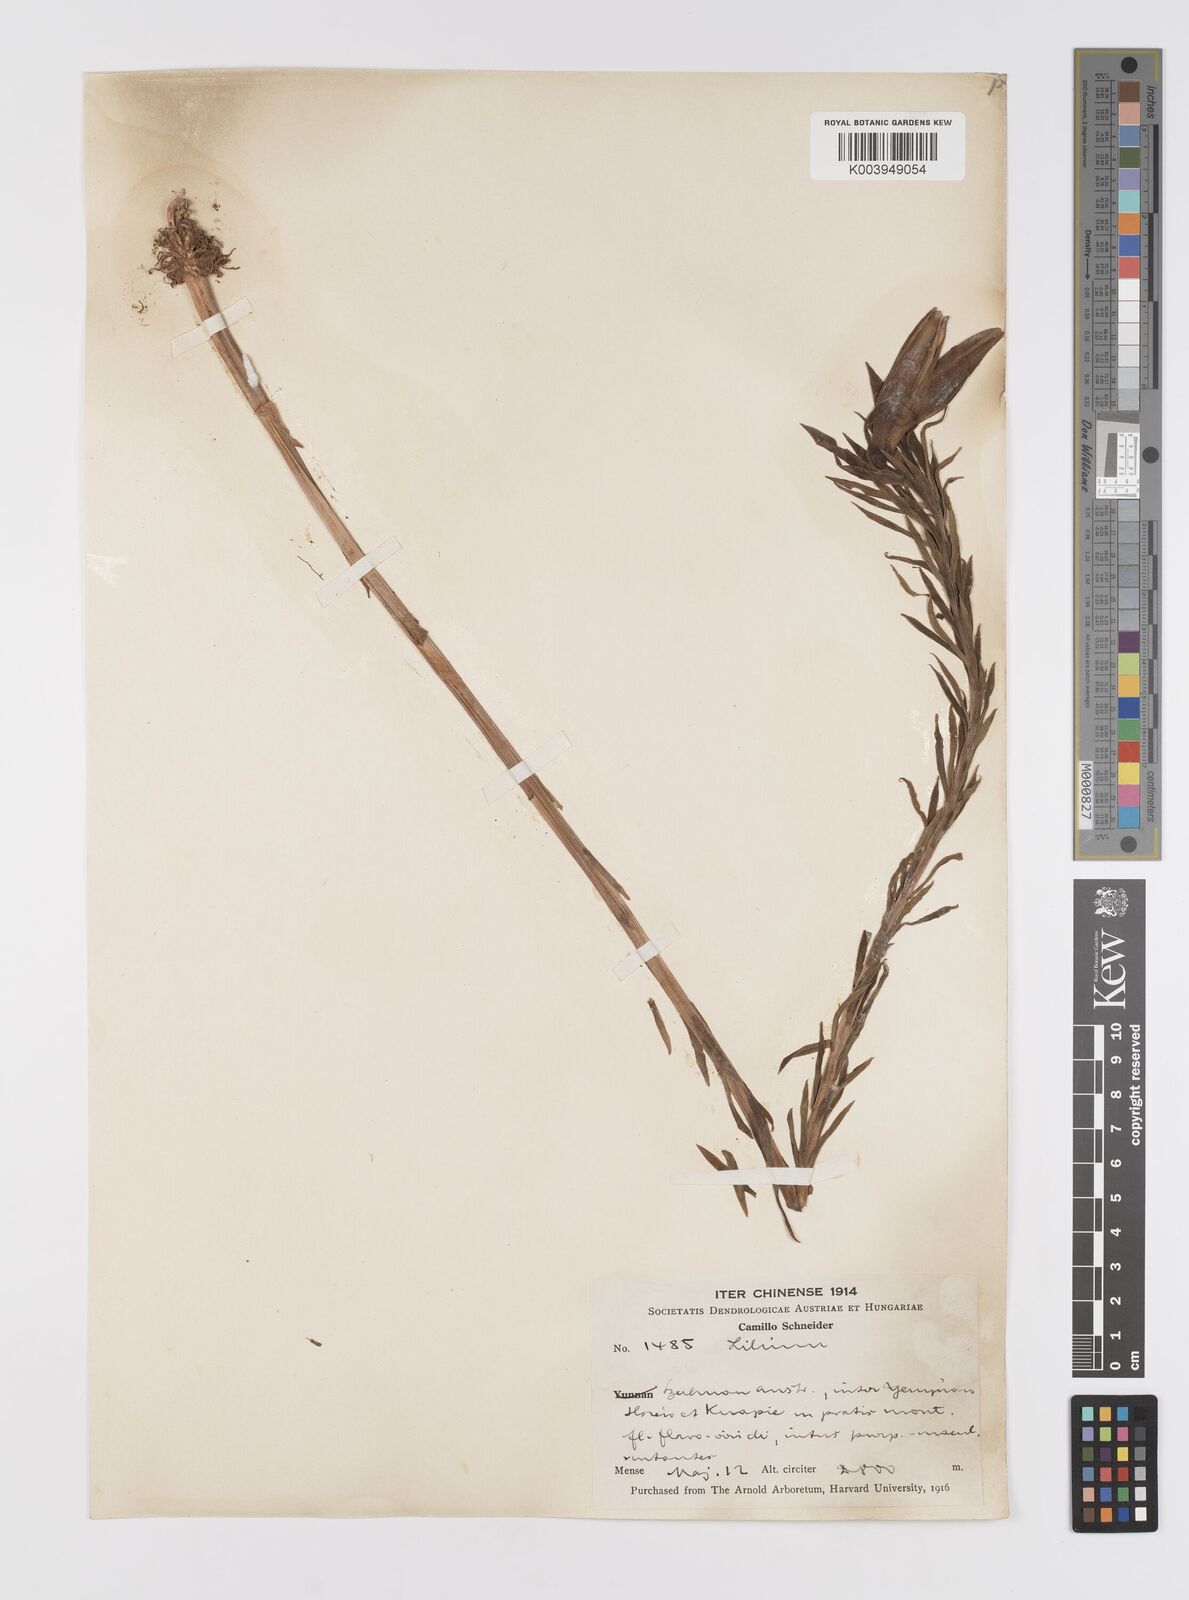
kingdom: Plantae
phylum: Tracheophyta
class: Liliopsida
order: Liliales
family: Liliaceae
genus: Lilium
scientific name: Lilium
